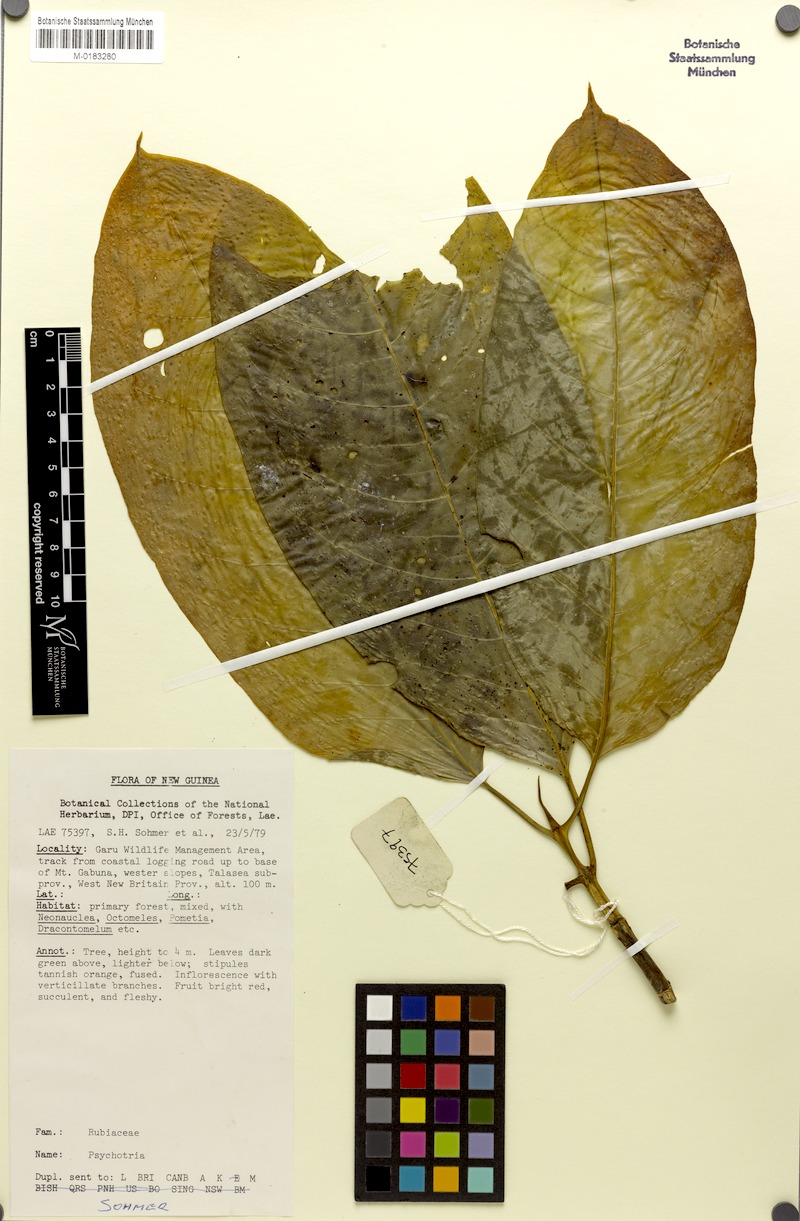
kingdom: Plantae
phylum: Tracheophyta
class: Magnoliopsida
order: Gentianales
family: Rubiaceae
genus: Eumachia
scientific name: Eumachia damasiana
